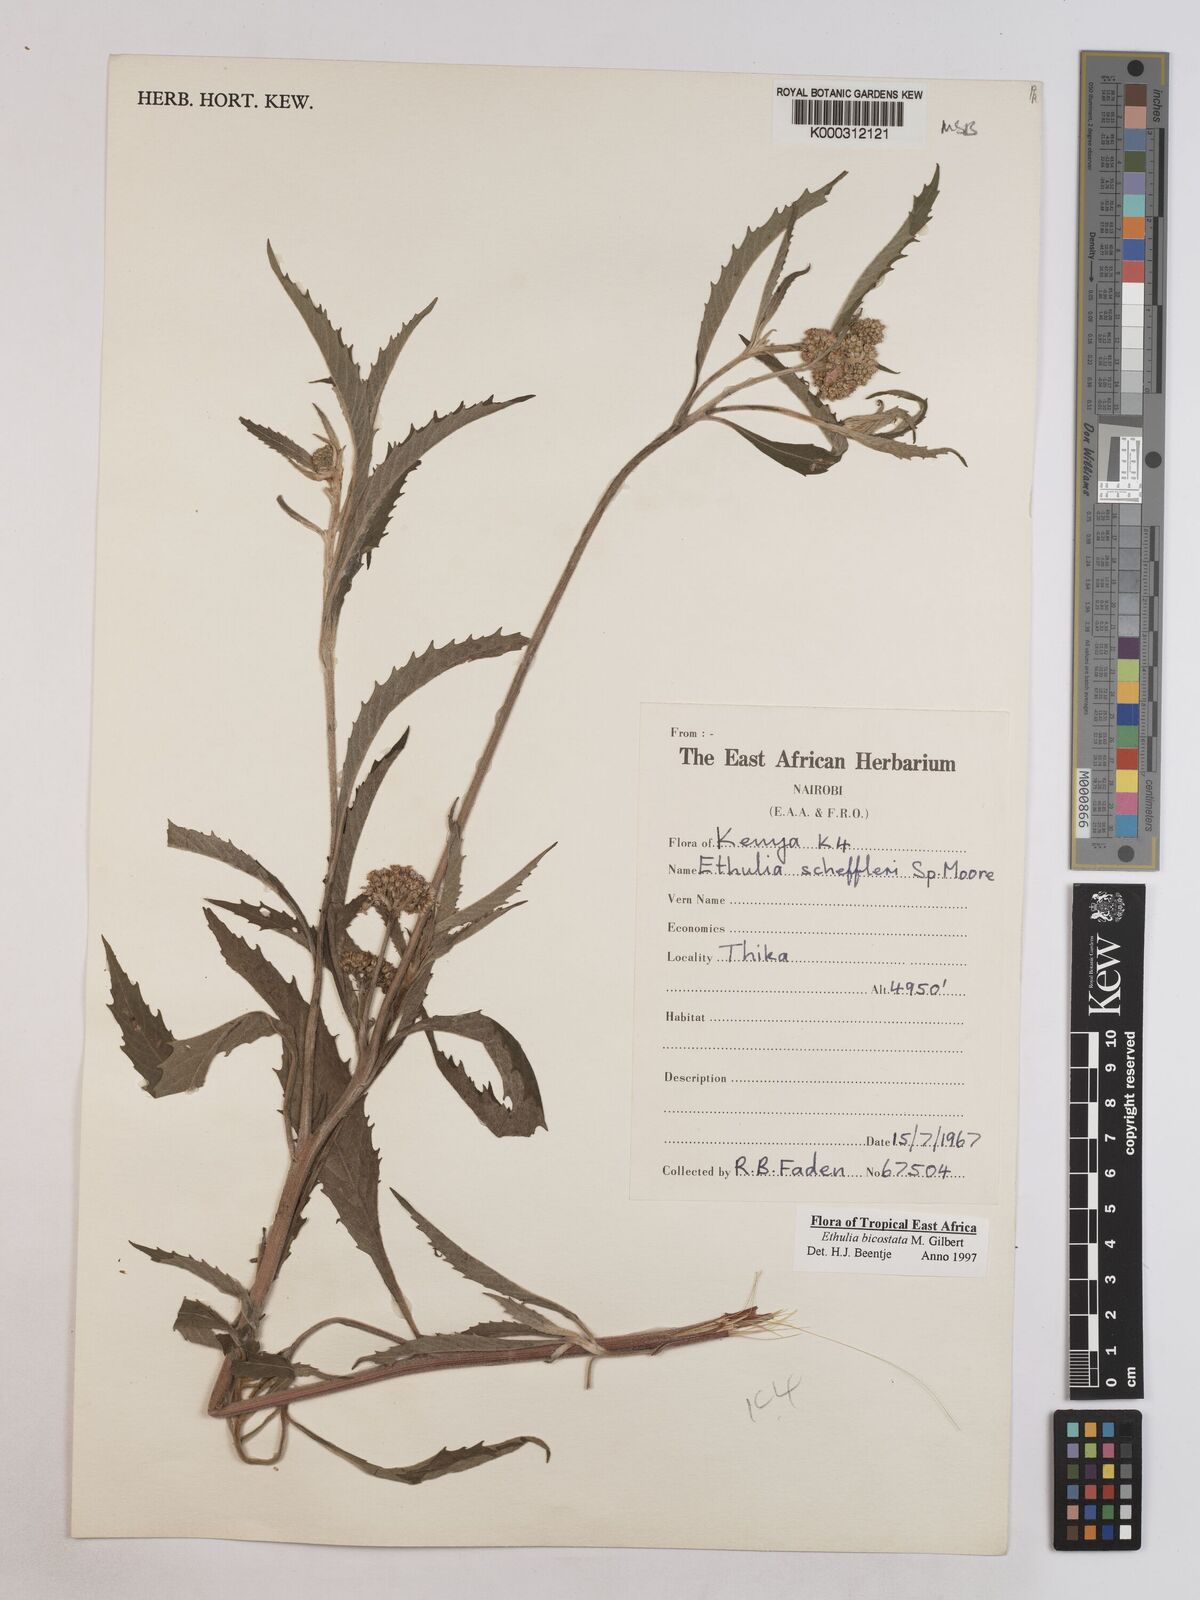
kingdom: Plantae
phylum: Tracheophyta
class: Magnoliopsida
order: Asterales
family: Asteraceae
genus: Ethulia
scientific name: Ethulia bicostata
